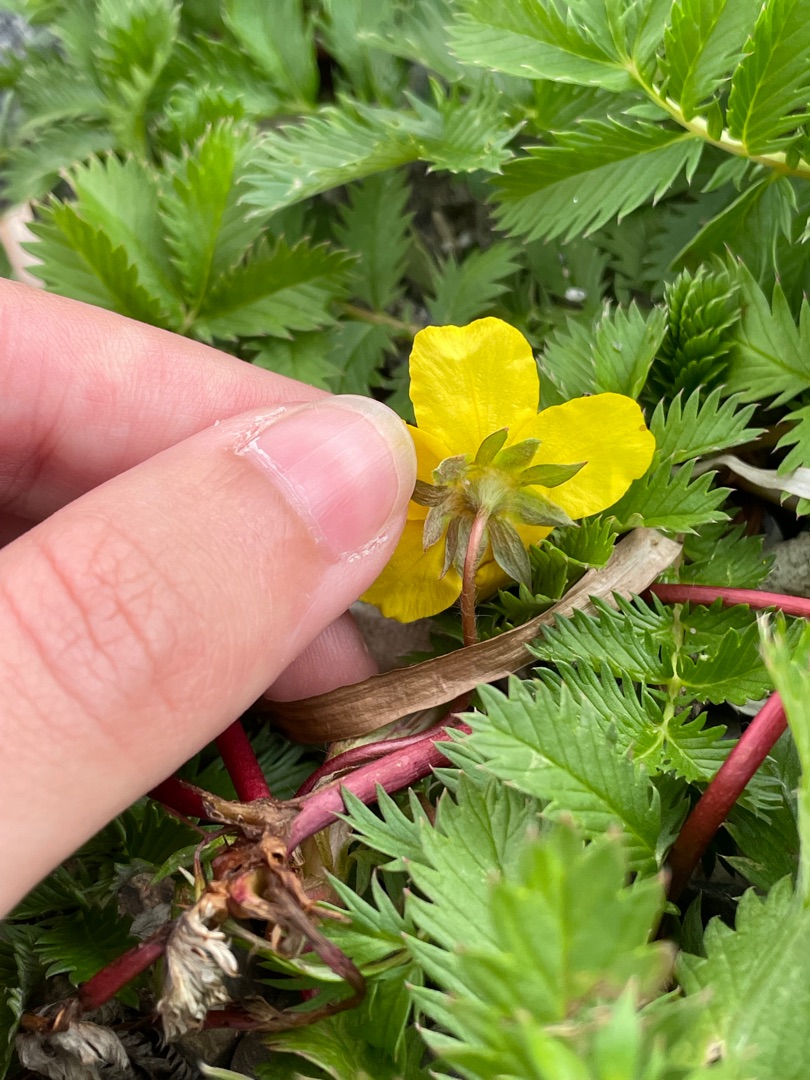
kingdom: Plantae
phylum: Tracheophyta
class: Magnoliopsida
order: Rosales
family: Rosaceae
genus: Argentina
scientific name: Argentina anserina
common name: Gåsepotentil
